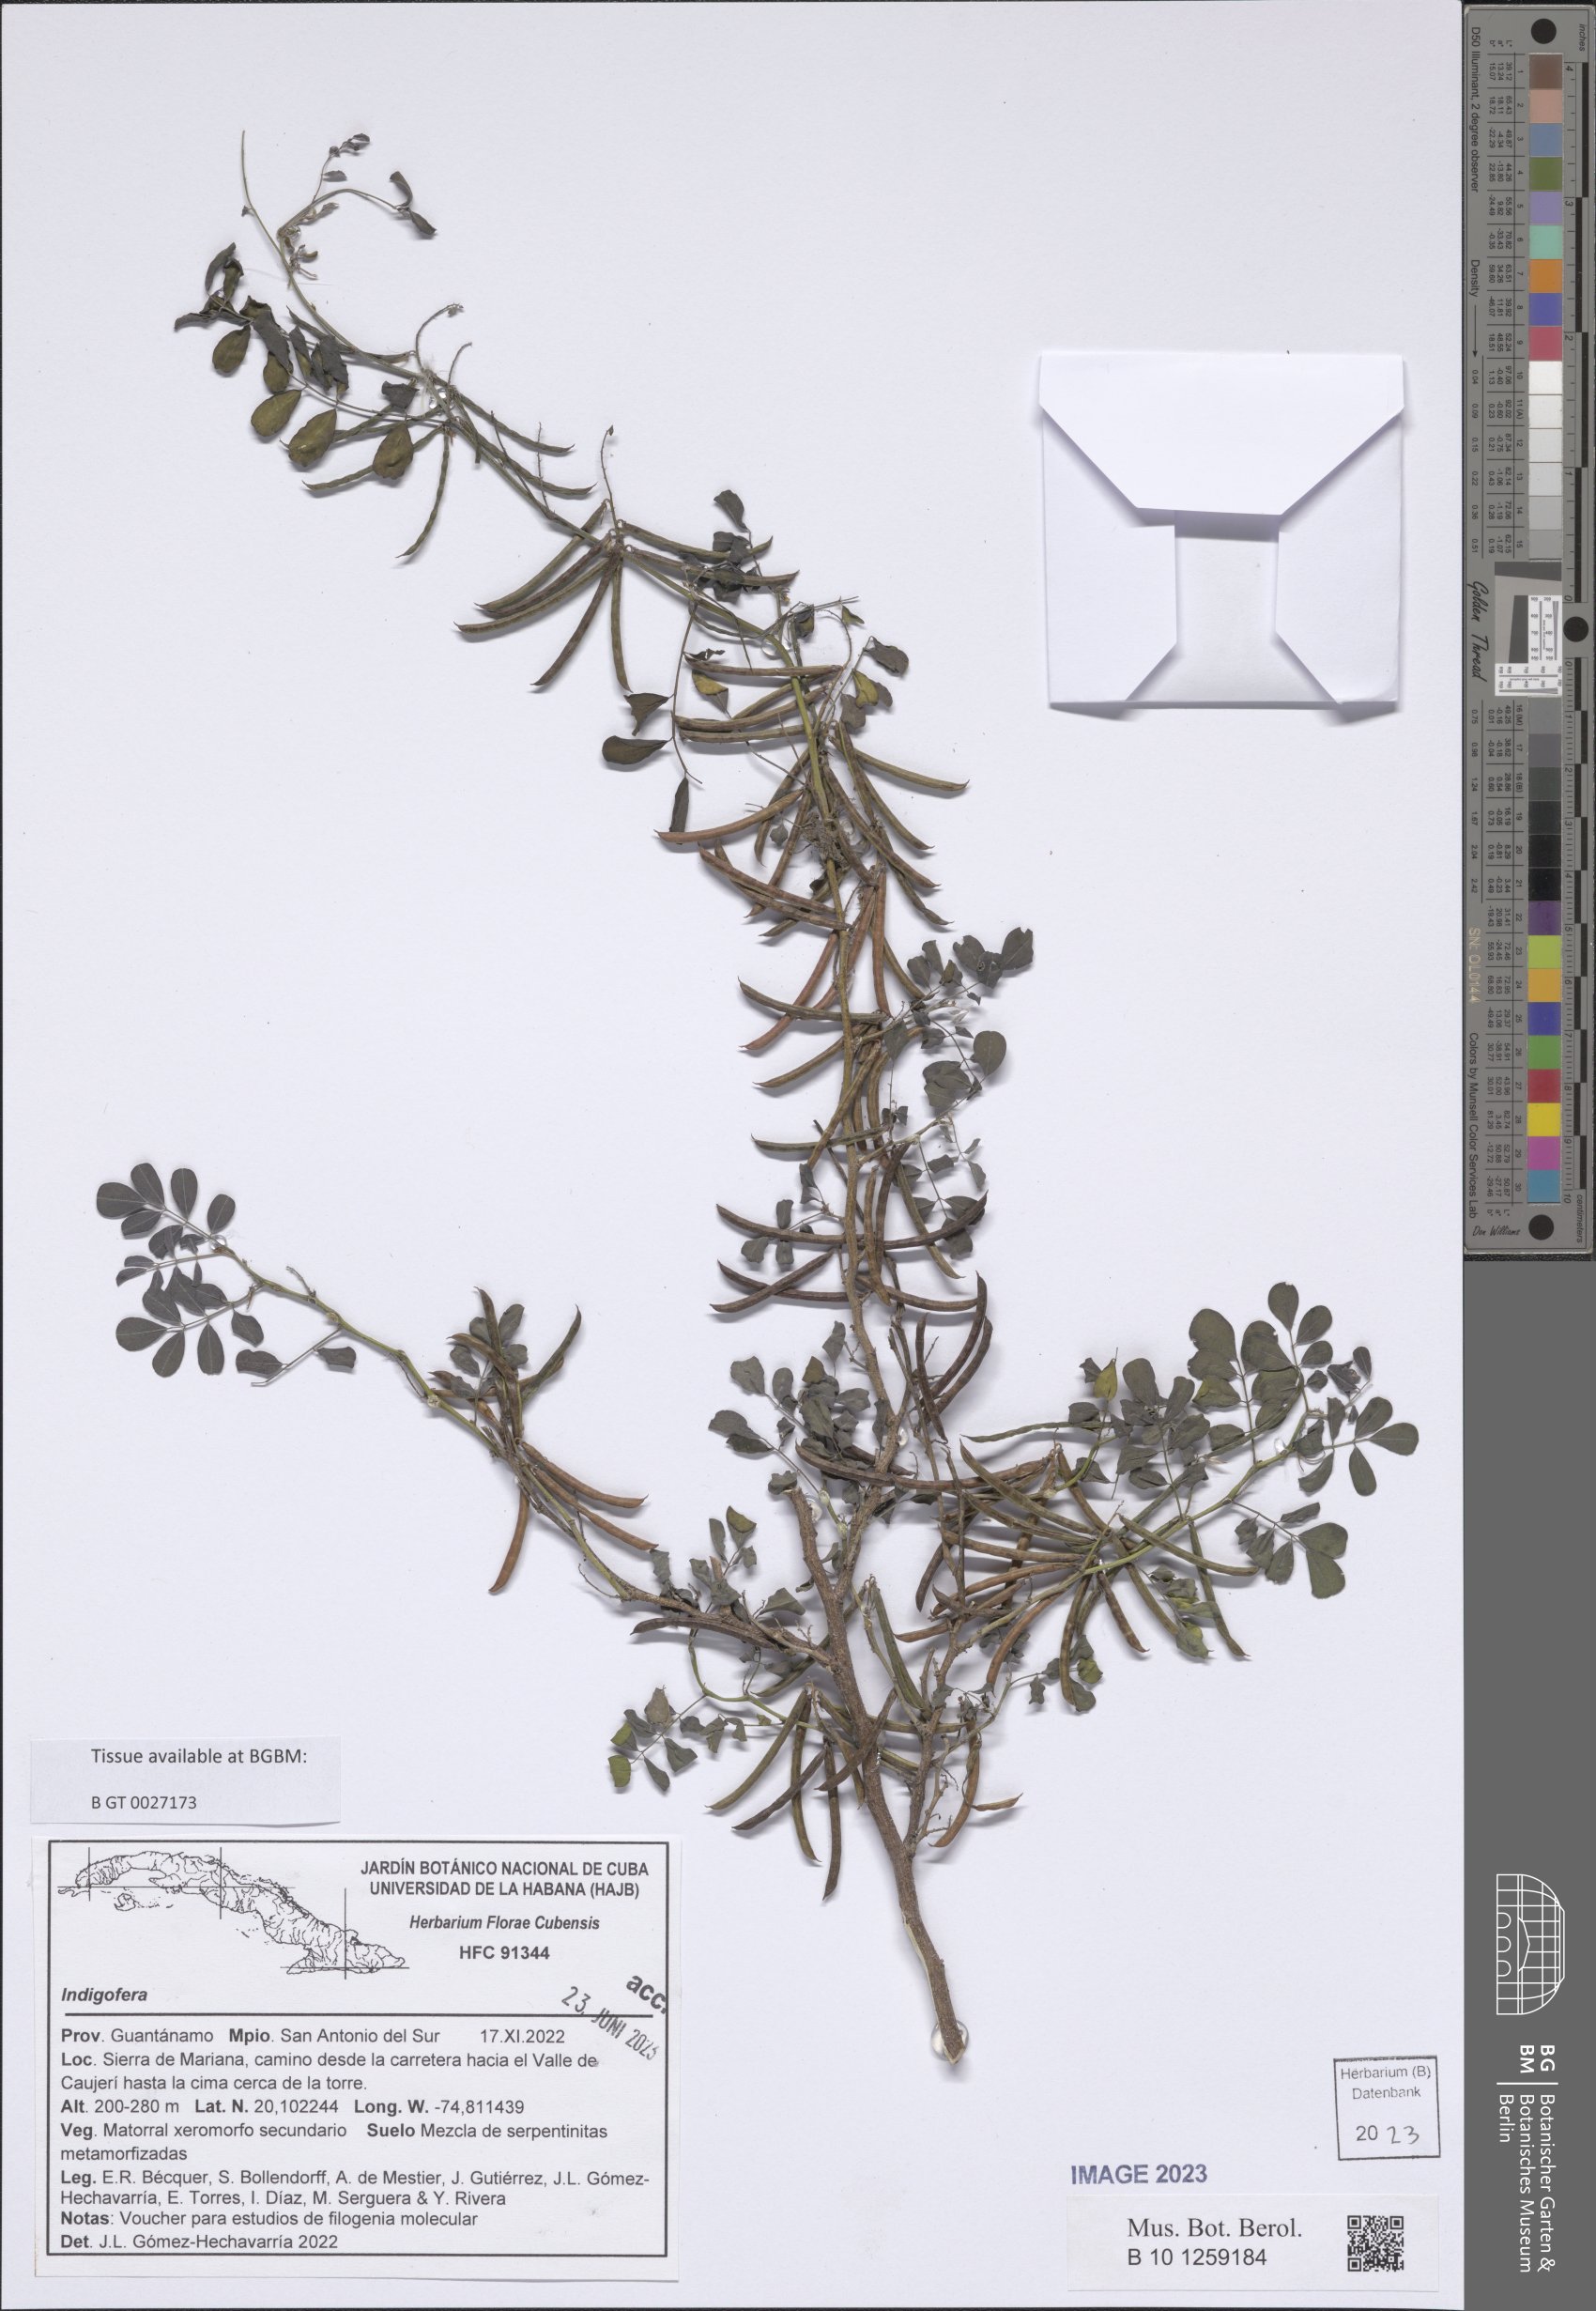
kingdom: Plantae
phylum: Tracheophyta
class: Magnoliopsida
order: Fabales
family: Fabaceae
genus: Indigofera
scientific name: Indigofera
